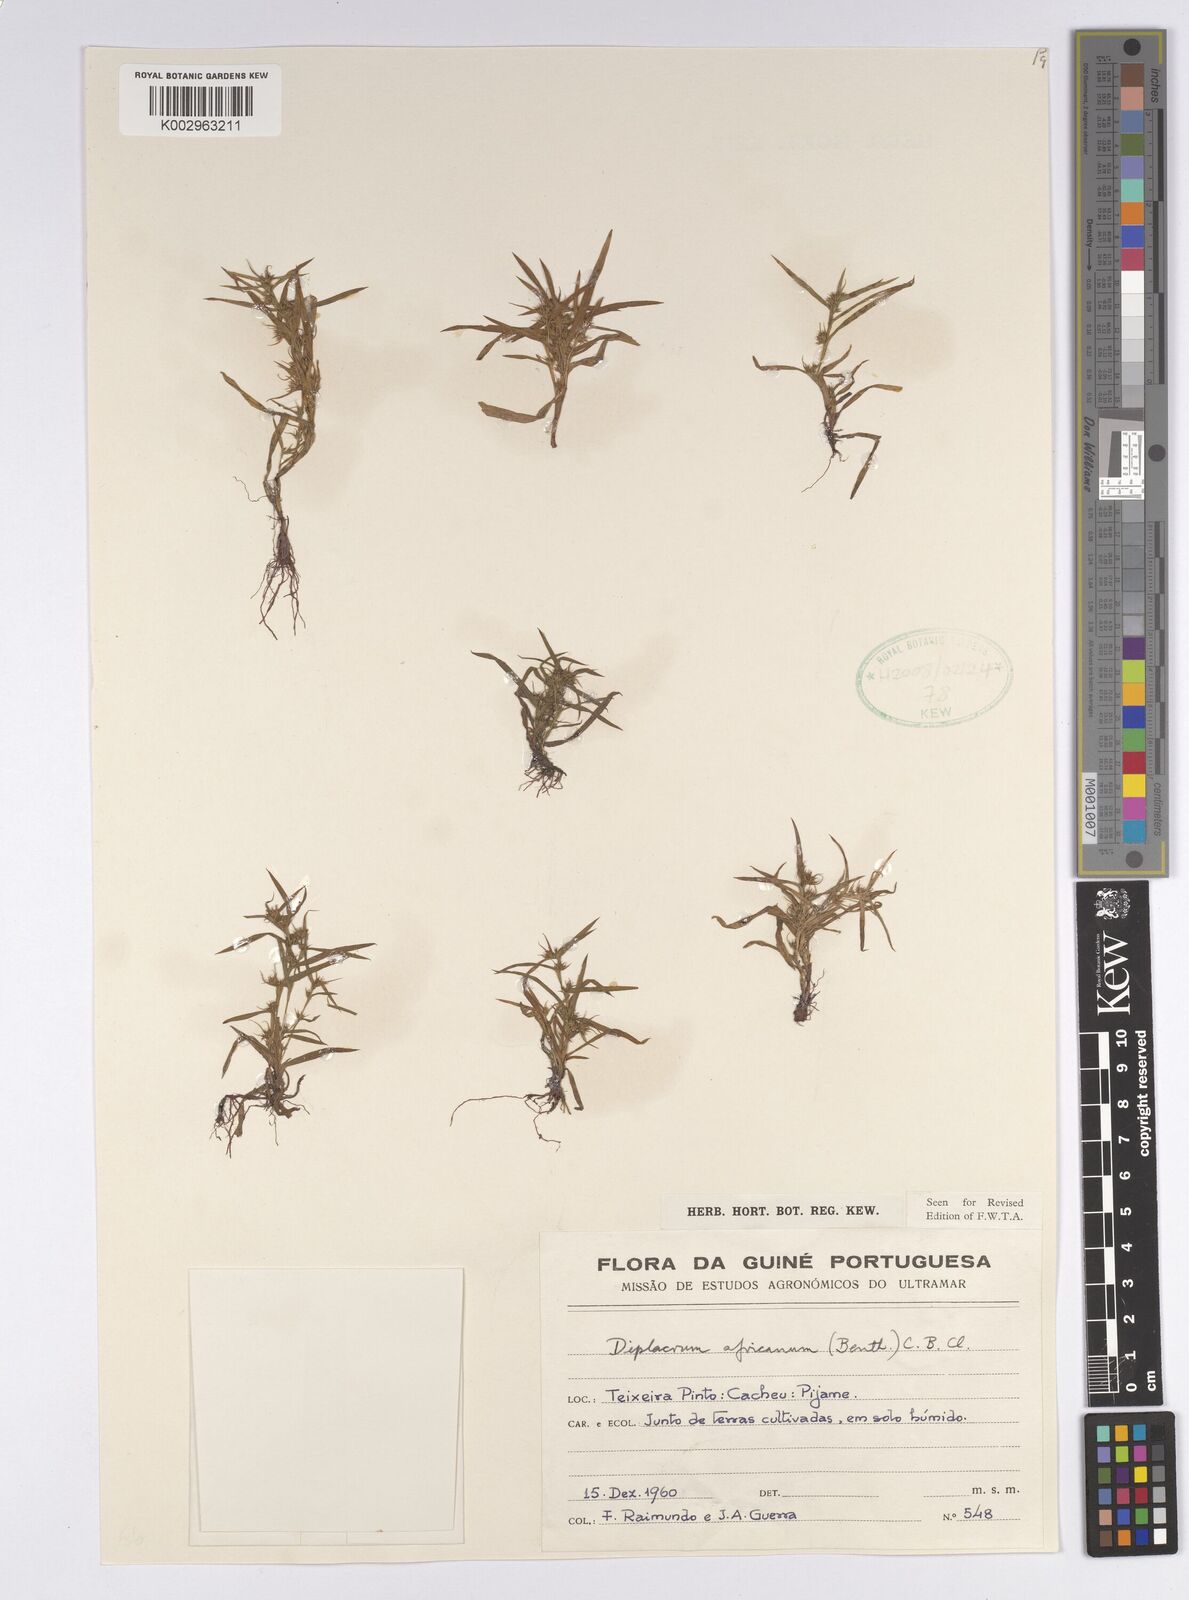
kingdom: Plantae
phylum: Tracheophyta
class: Liliopsida
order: Poales
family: Cyperaceae
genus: Diplacrum
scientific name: Diplacrum africanum
